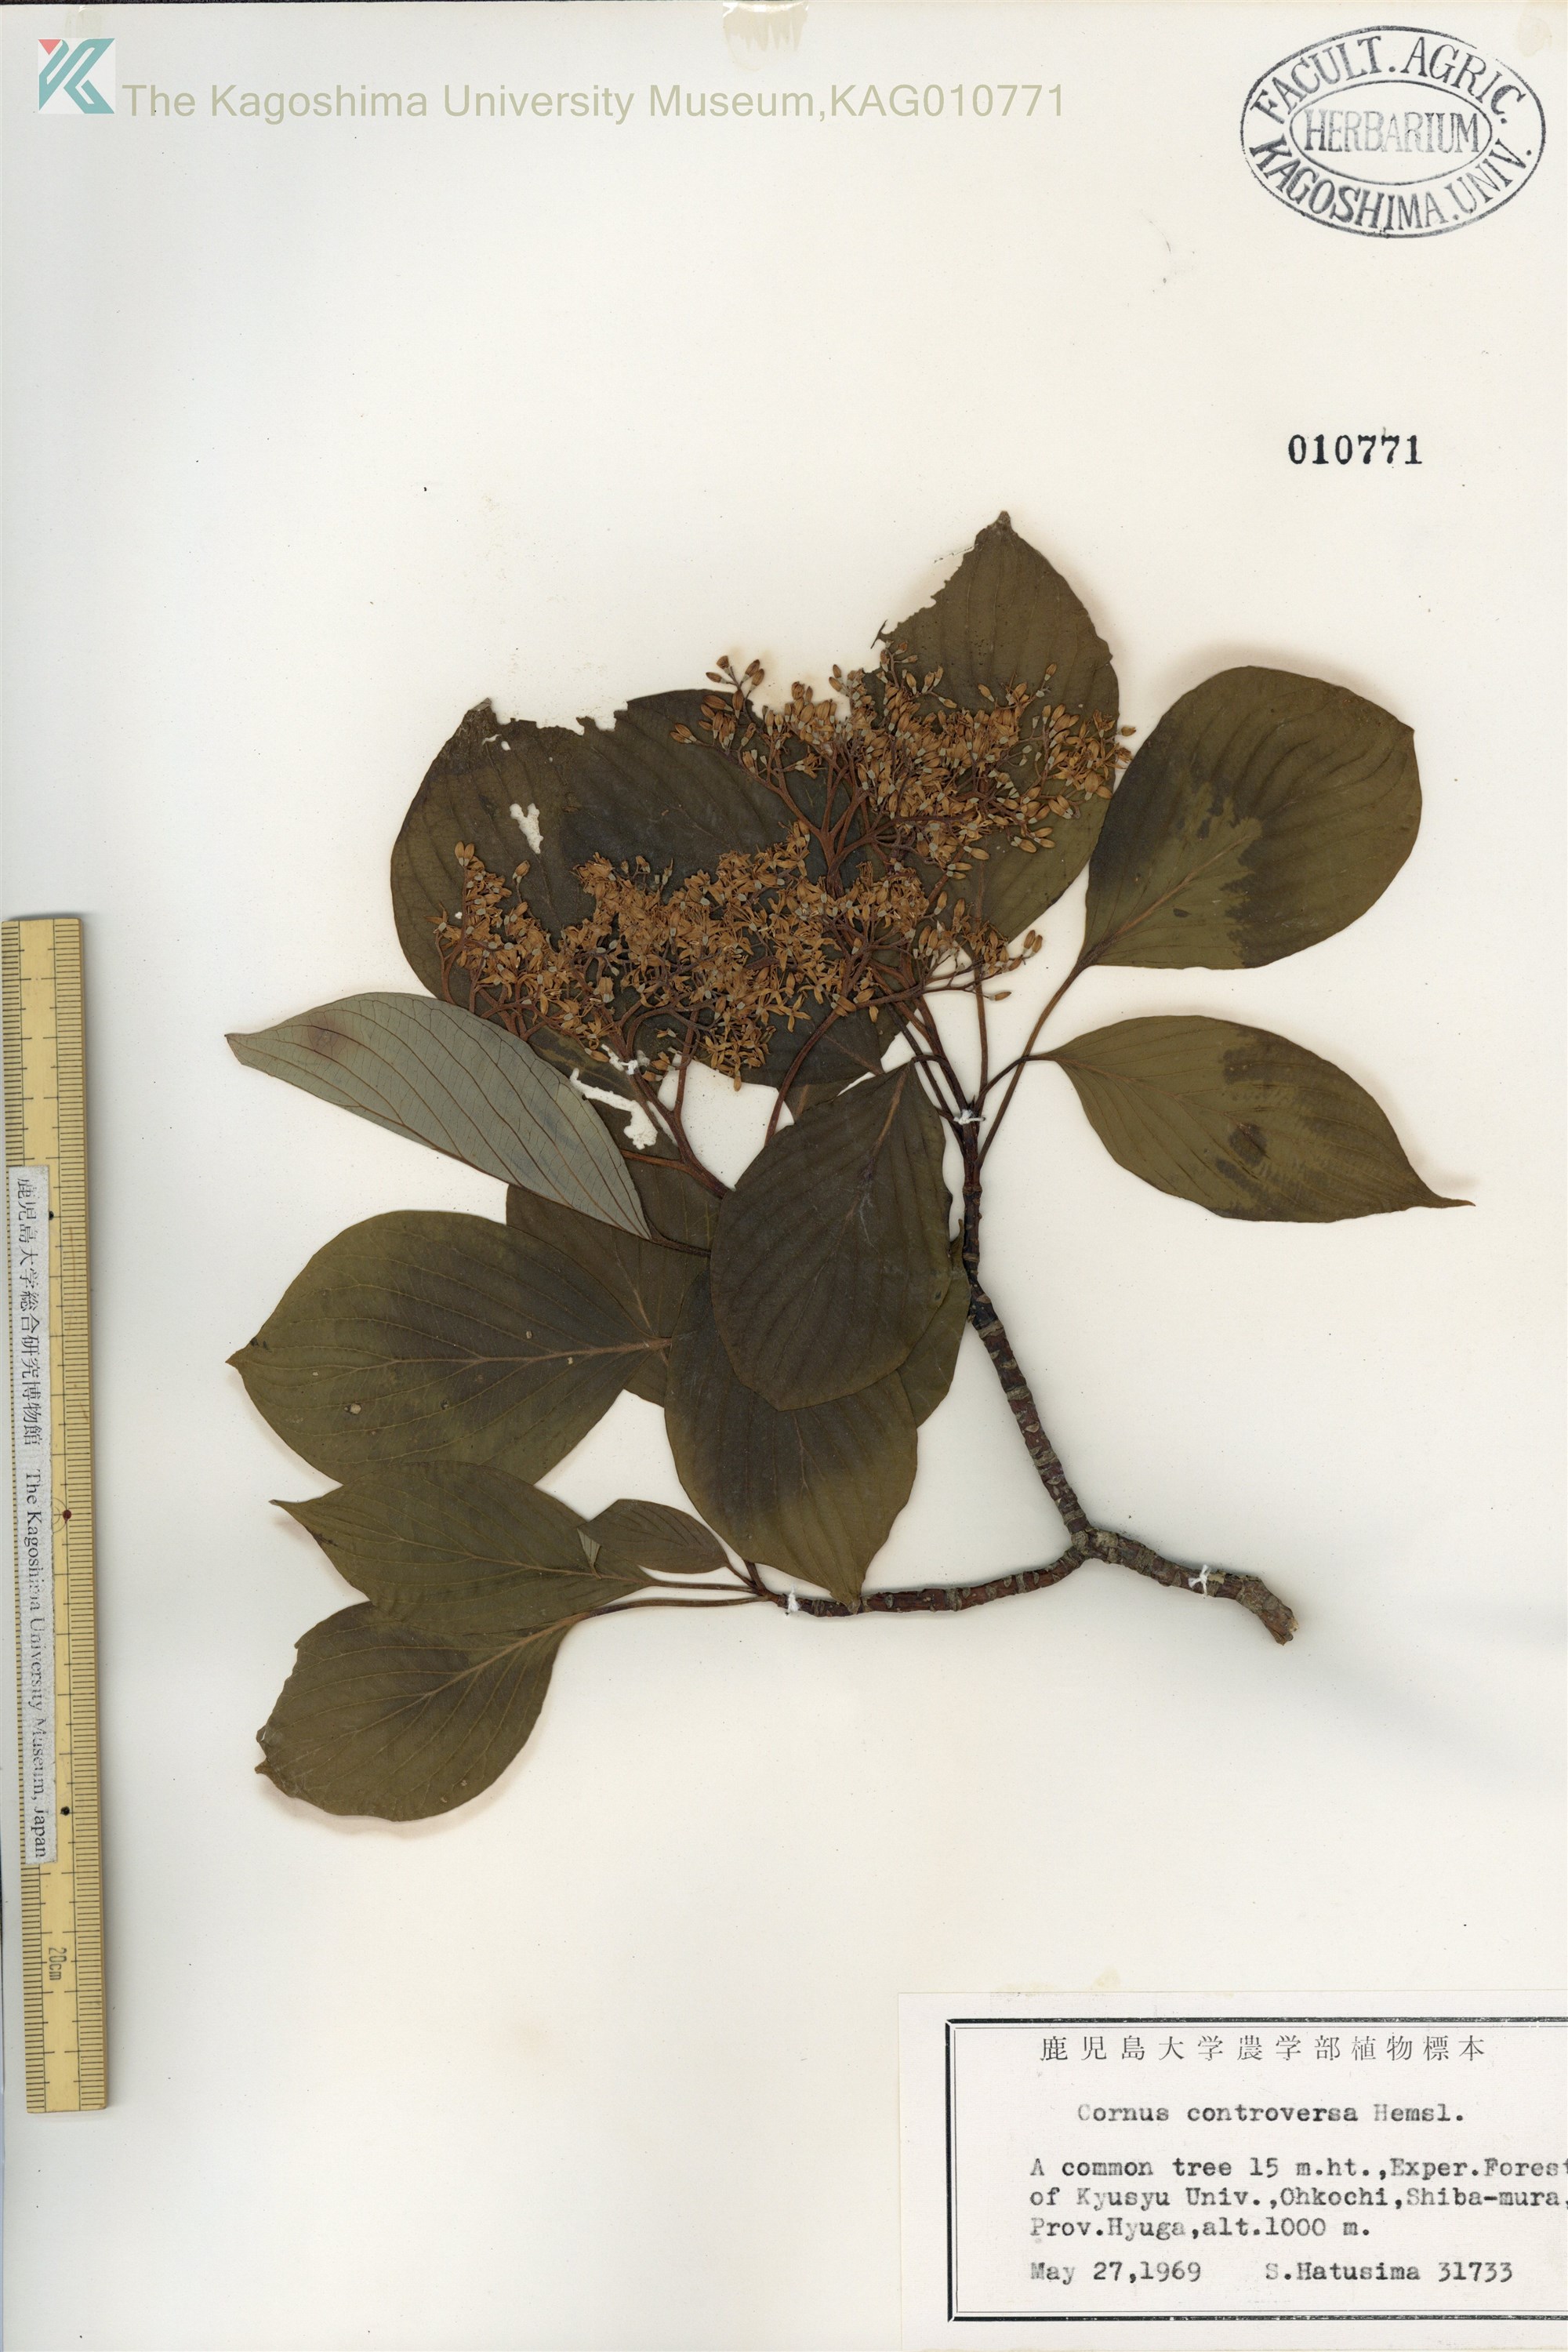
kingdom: Plantae
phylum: Tracheophyta
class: Magnoliopsida
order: Cornales
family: Cornaceae
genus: Cornus
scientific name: Cornus controversa
